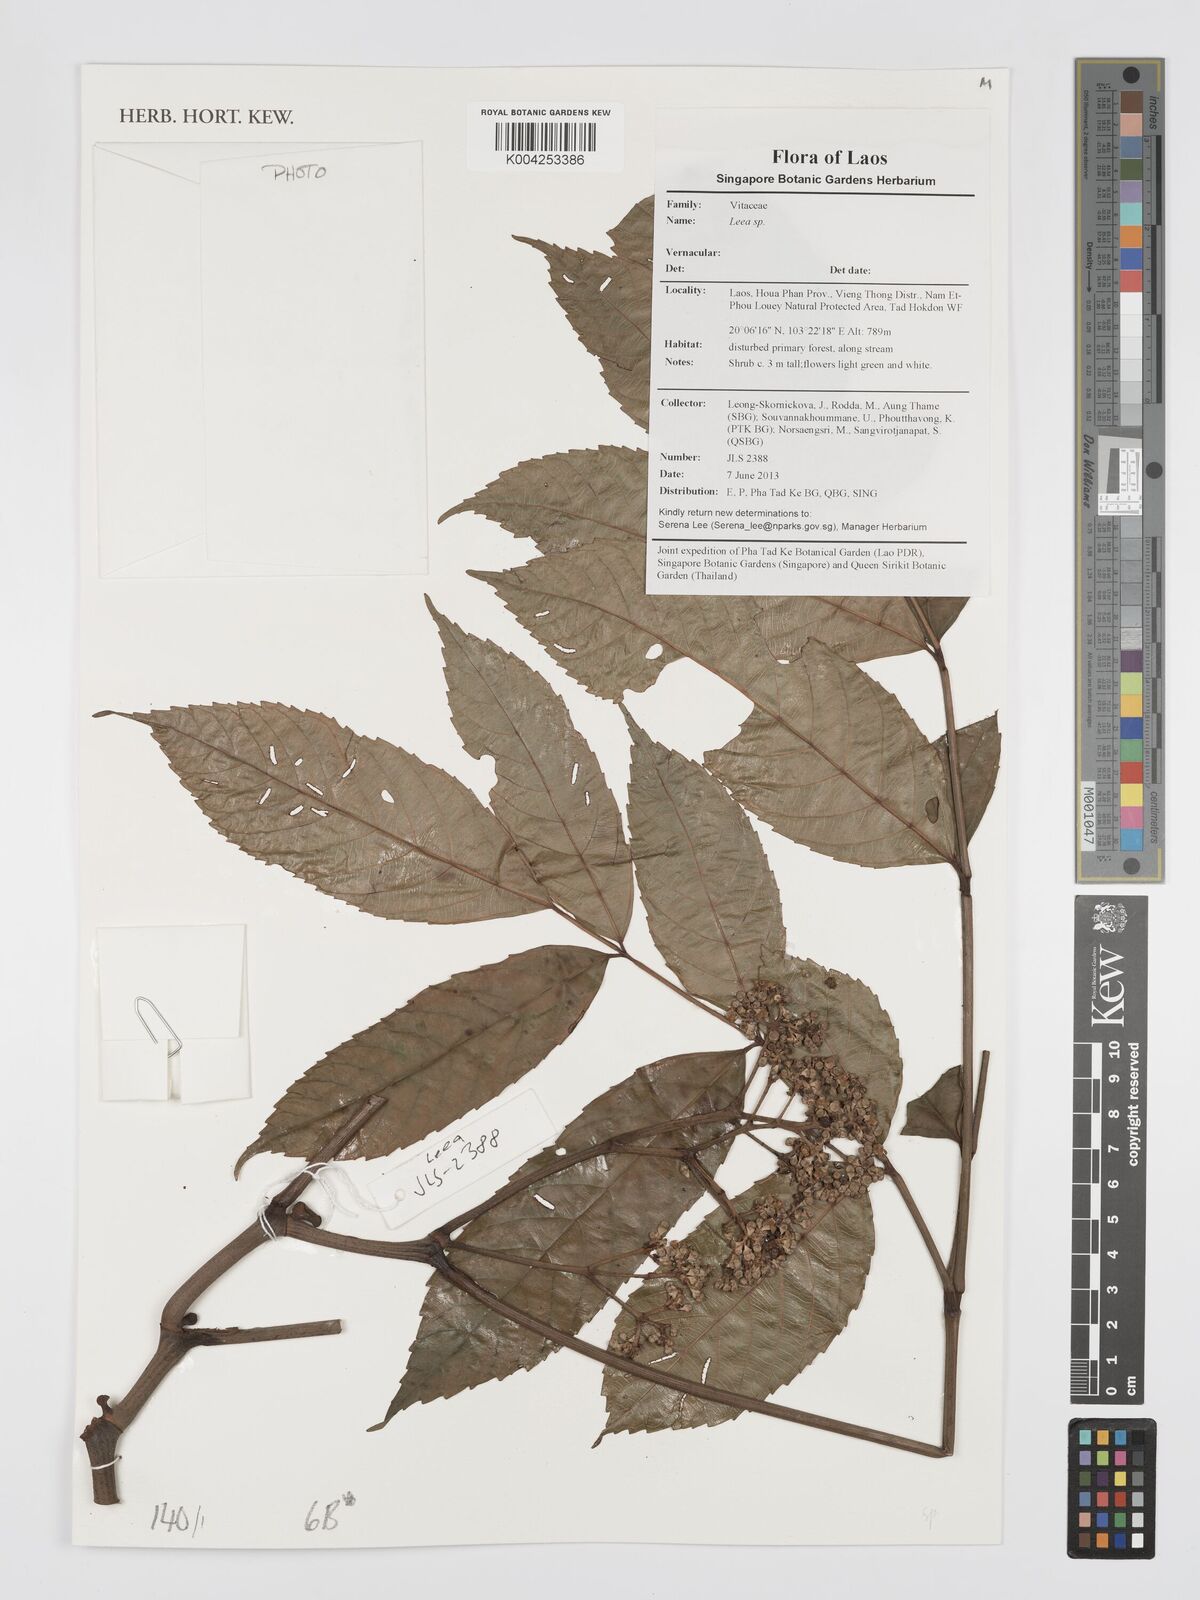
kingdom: Plantae
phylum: Tracheophyta
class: Magnoliopsida
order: Vitales
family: Vitaceae
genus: Leea
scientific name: Leea
